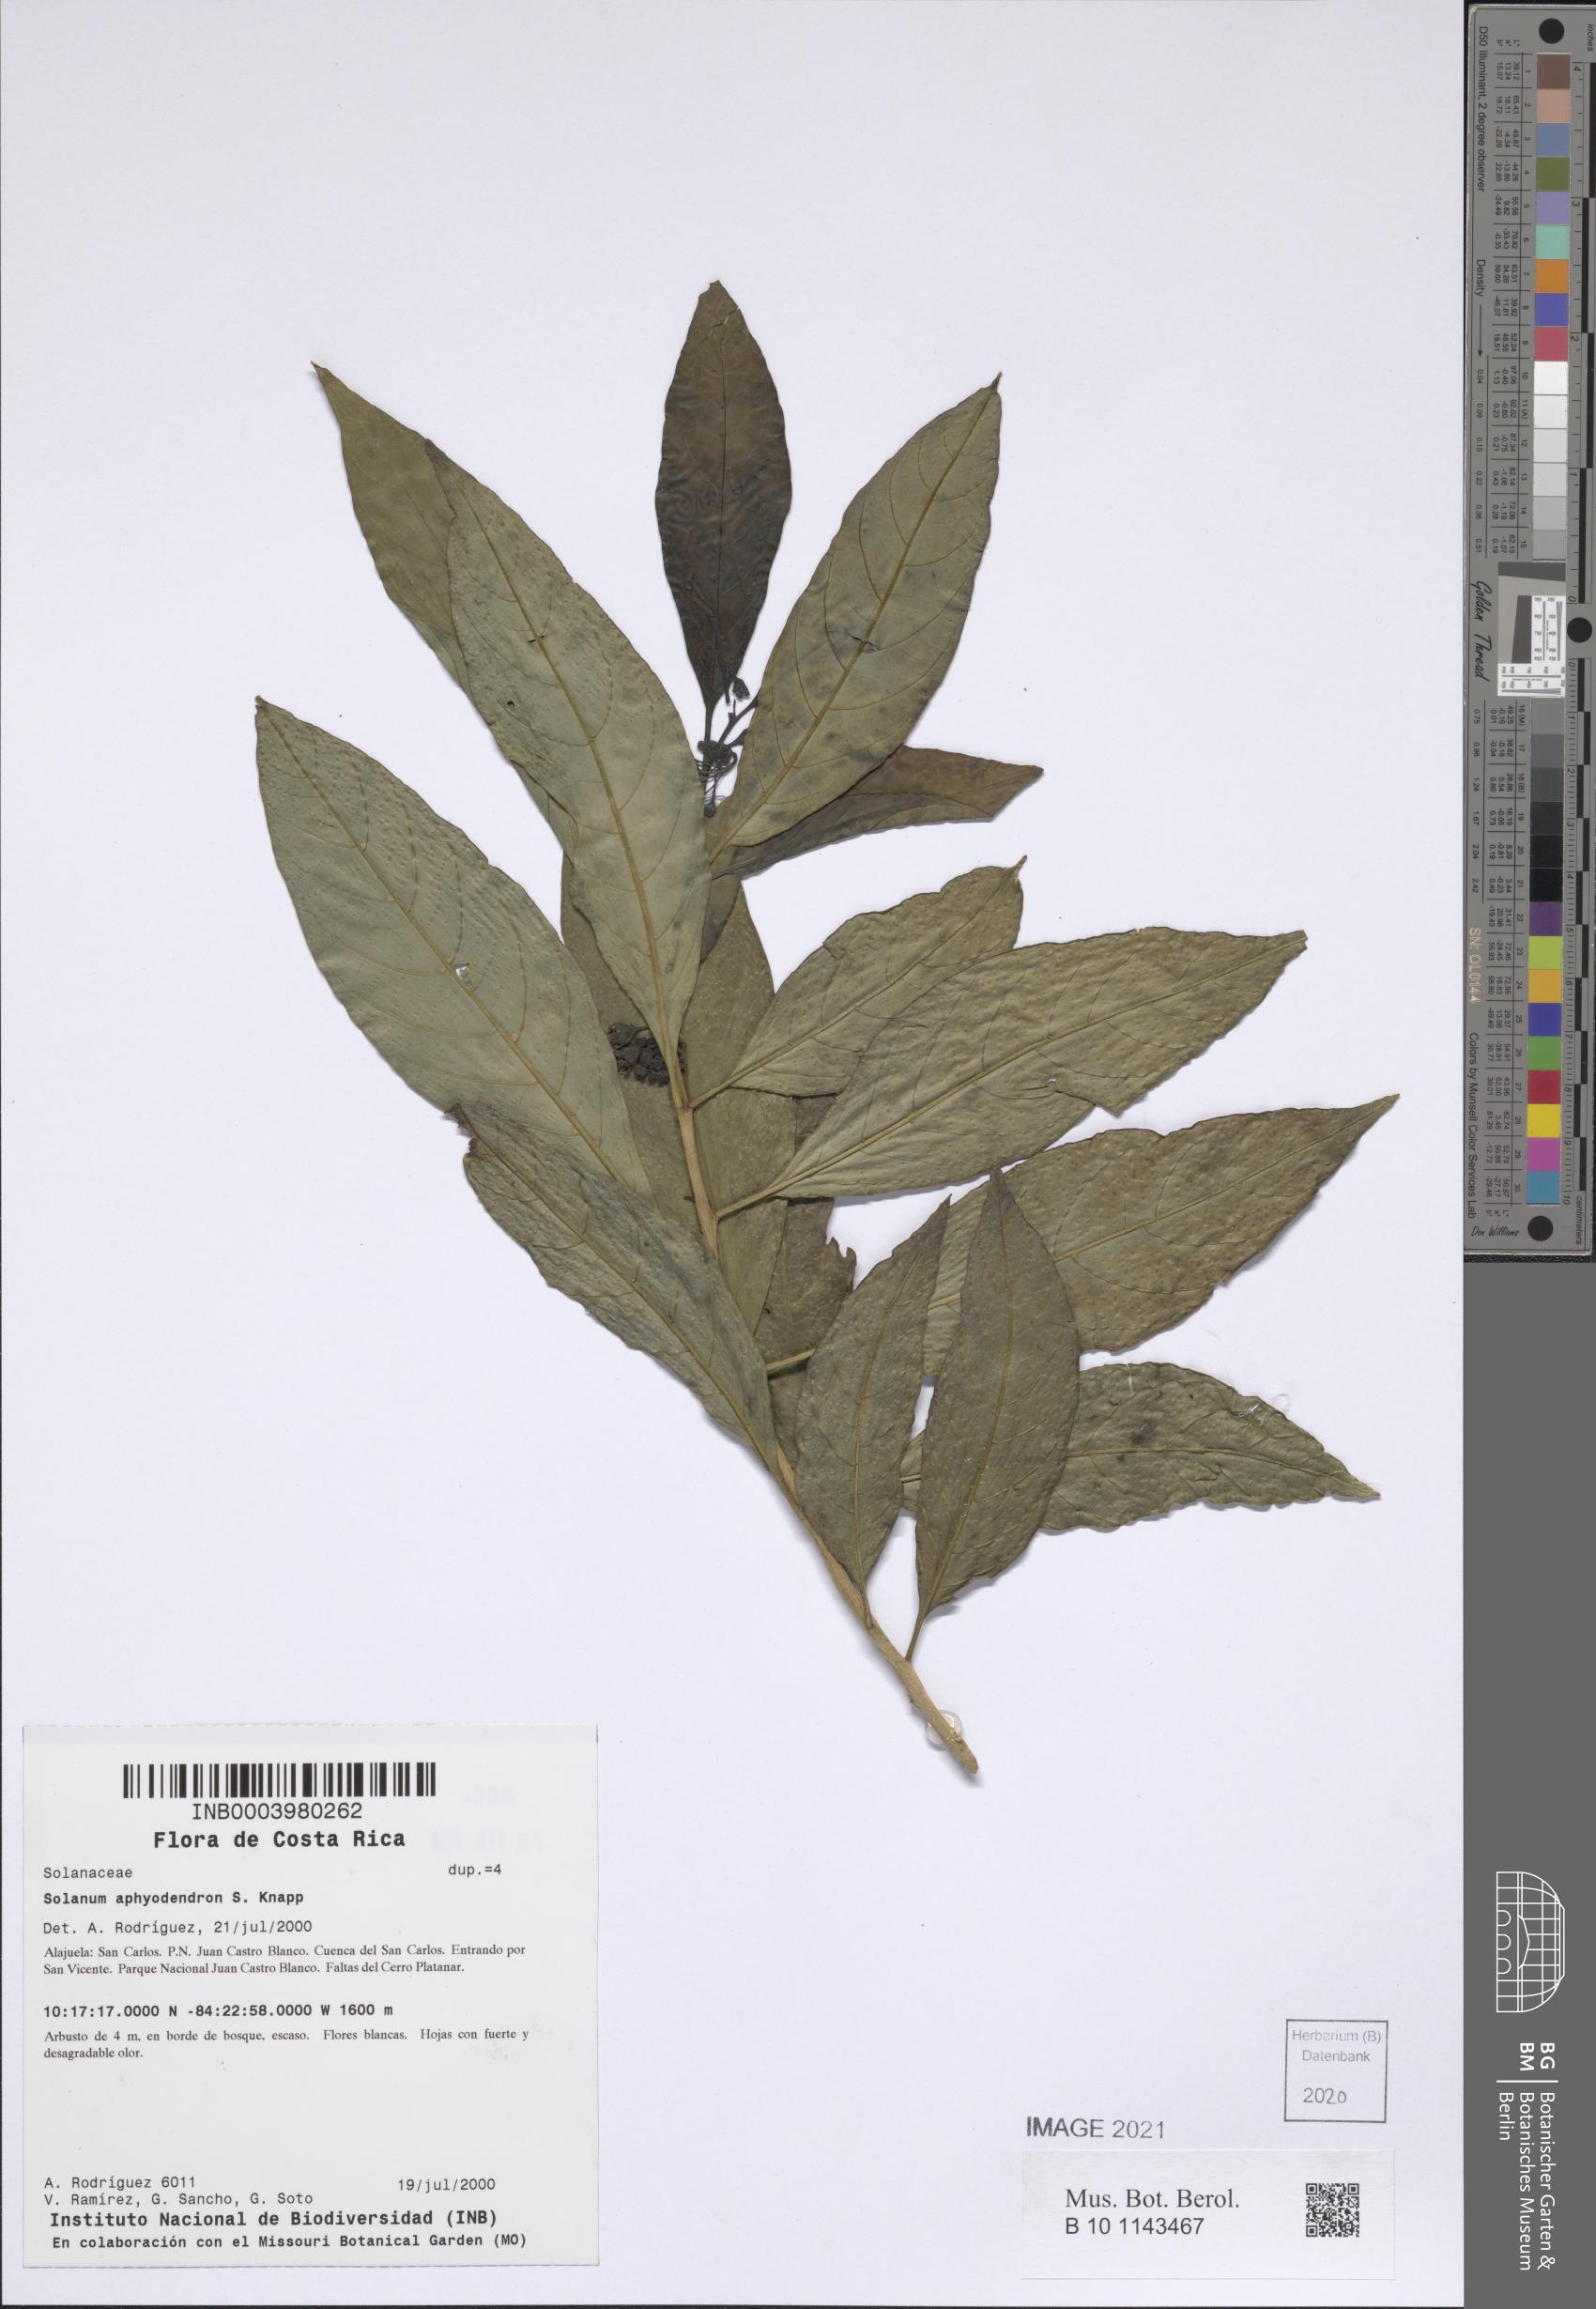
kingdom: Plantae
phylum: Tracheophyta
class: Magnoliopsida
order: Solanales
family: Solanaceae
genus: Solanum
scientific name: Solanum aphyodendron
